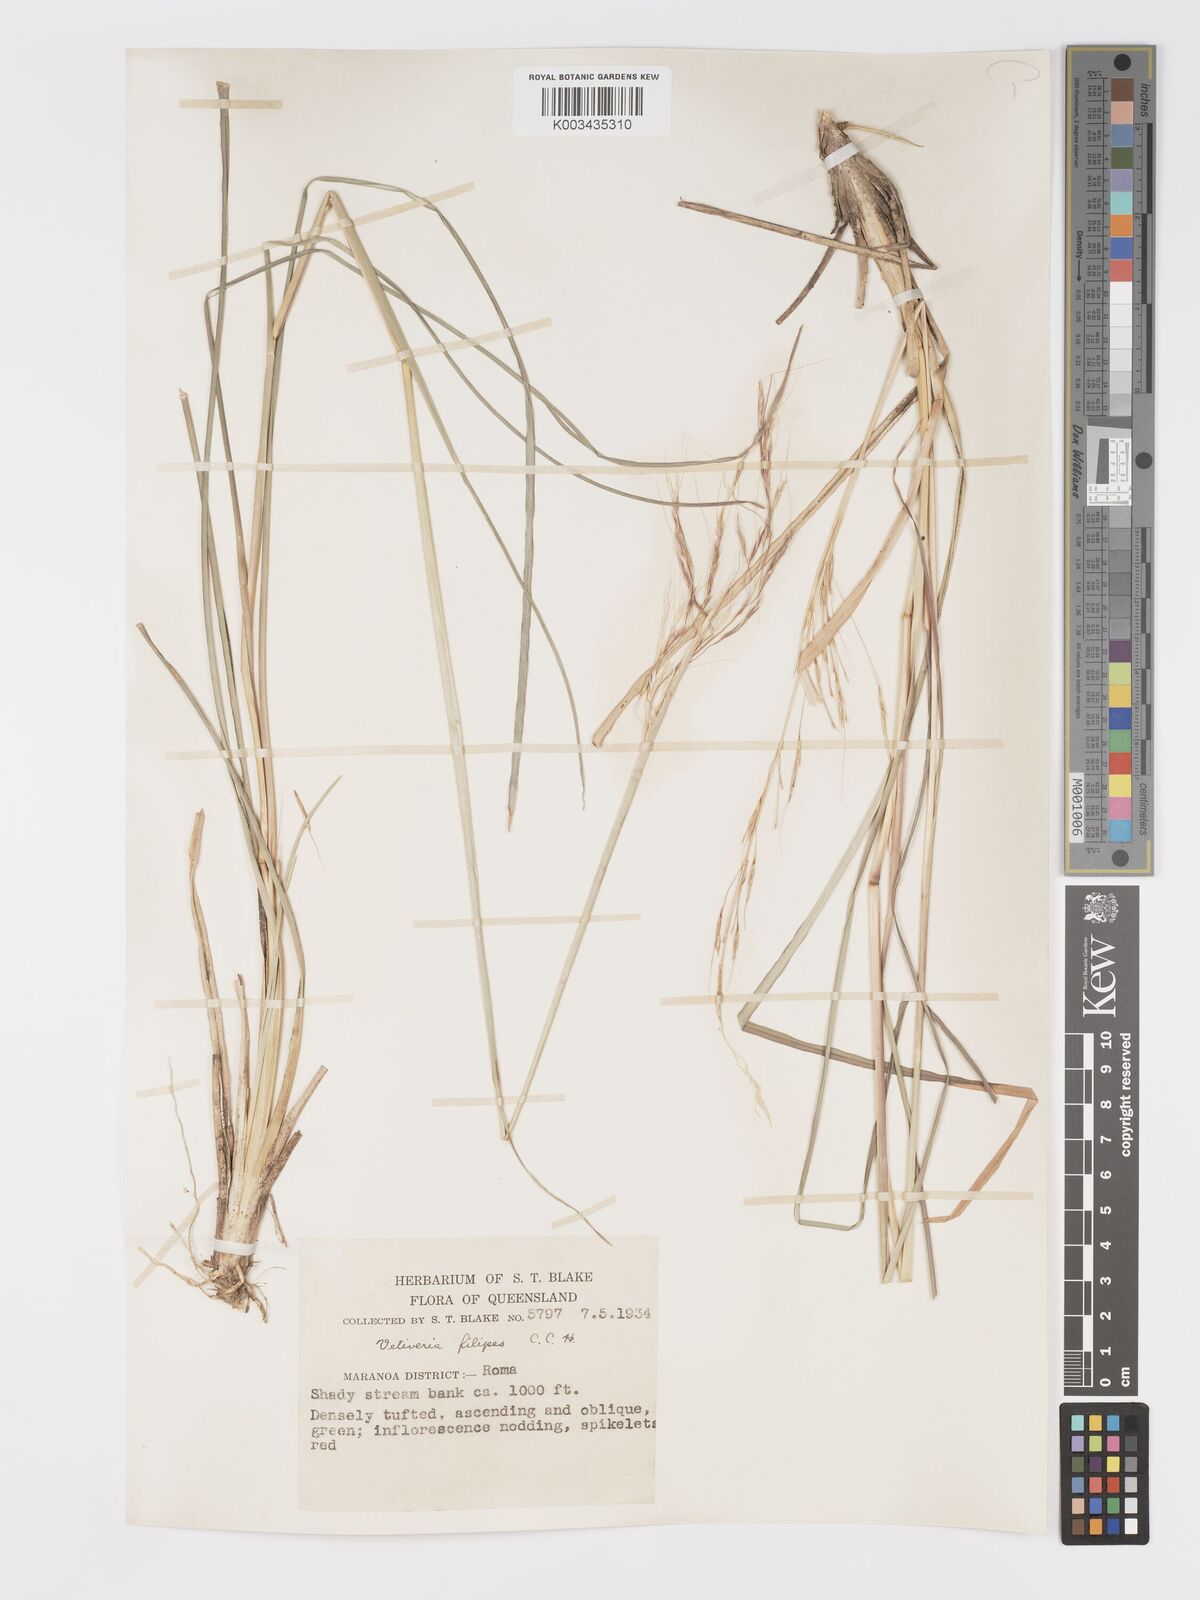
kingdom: Plantae
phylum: Tracheophyta
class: Liliopsida
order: Poales
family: Poaceae
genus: Chrysopogon
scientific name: Chrysopogon filipes
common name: Australian vetiver
